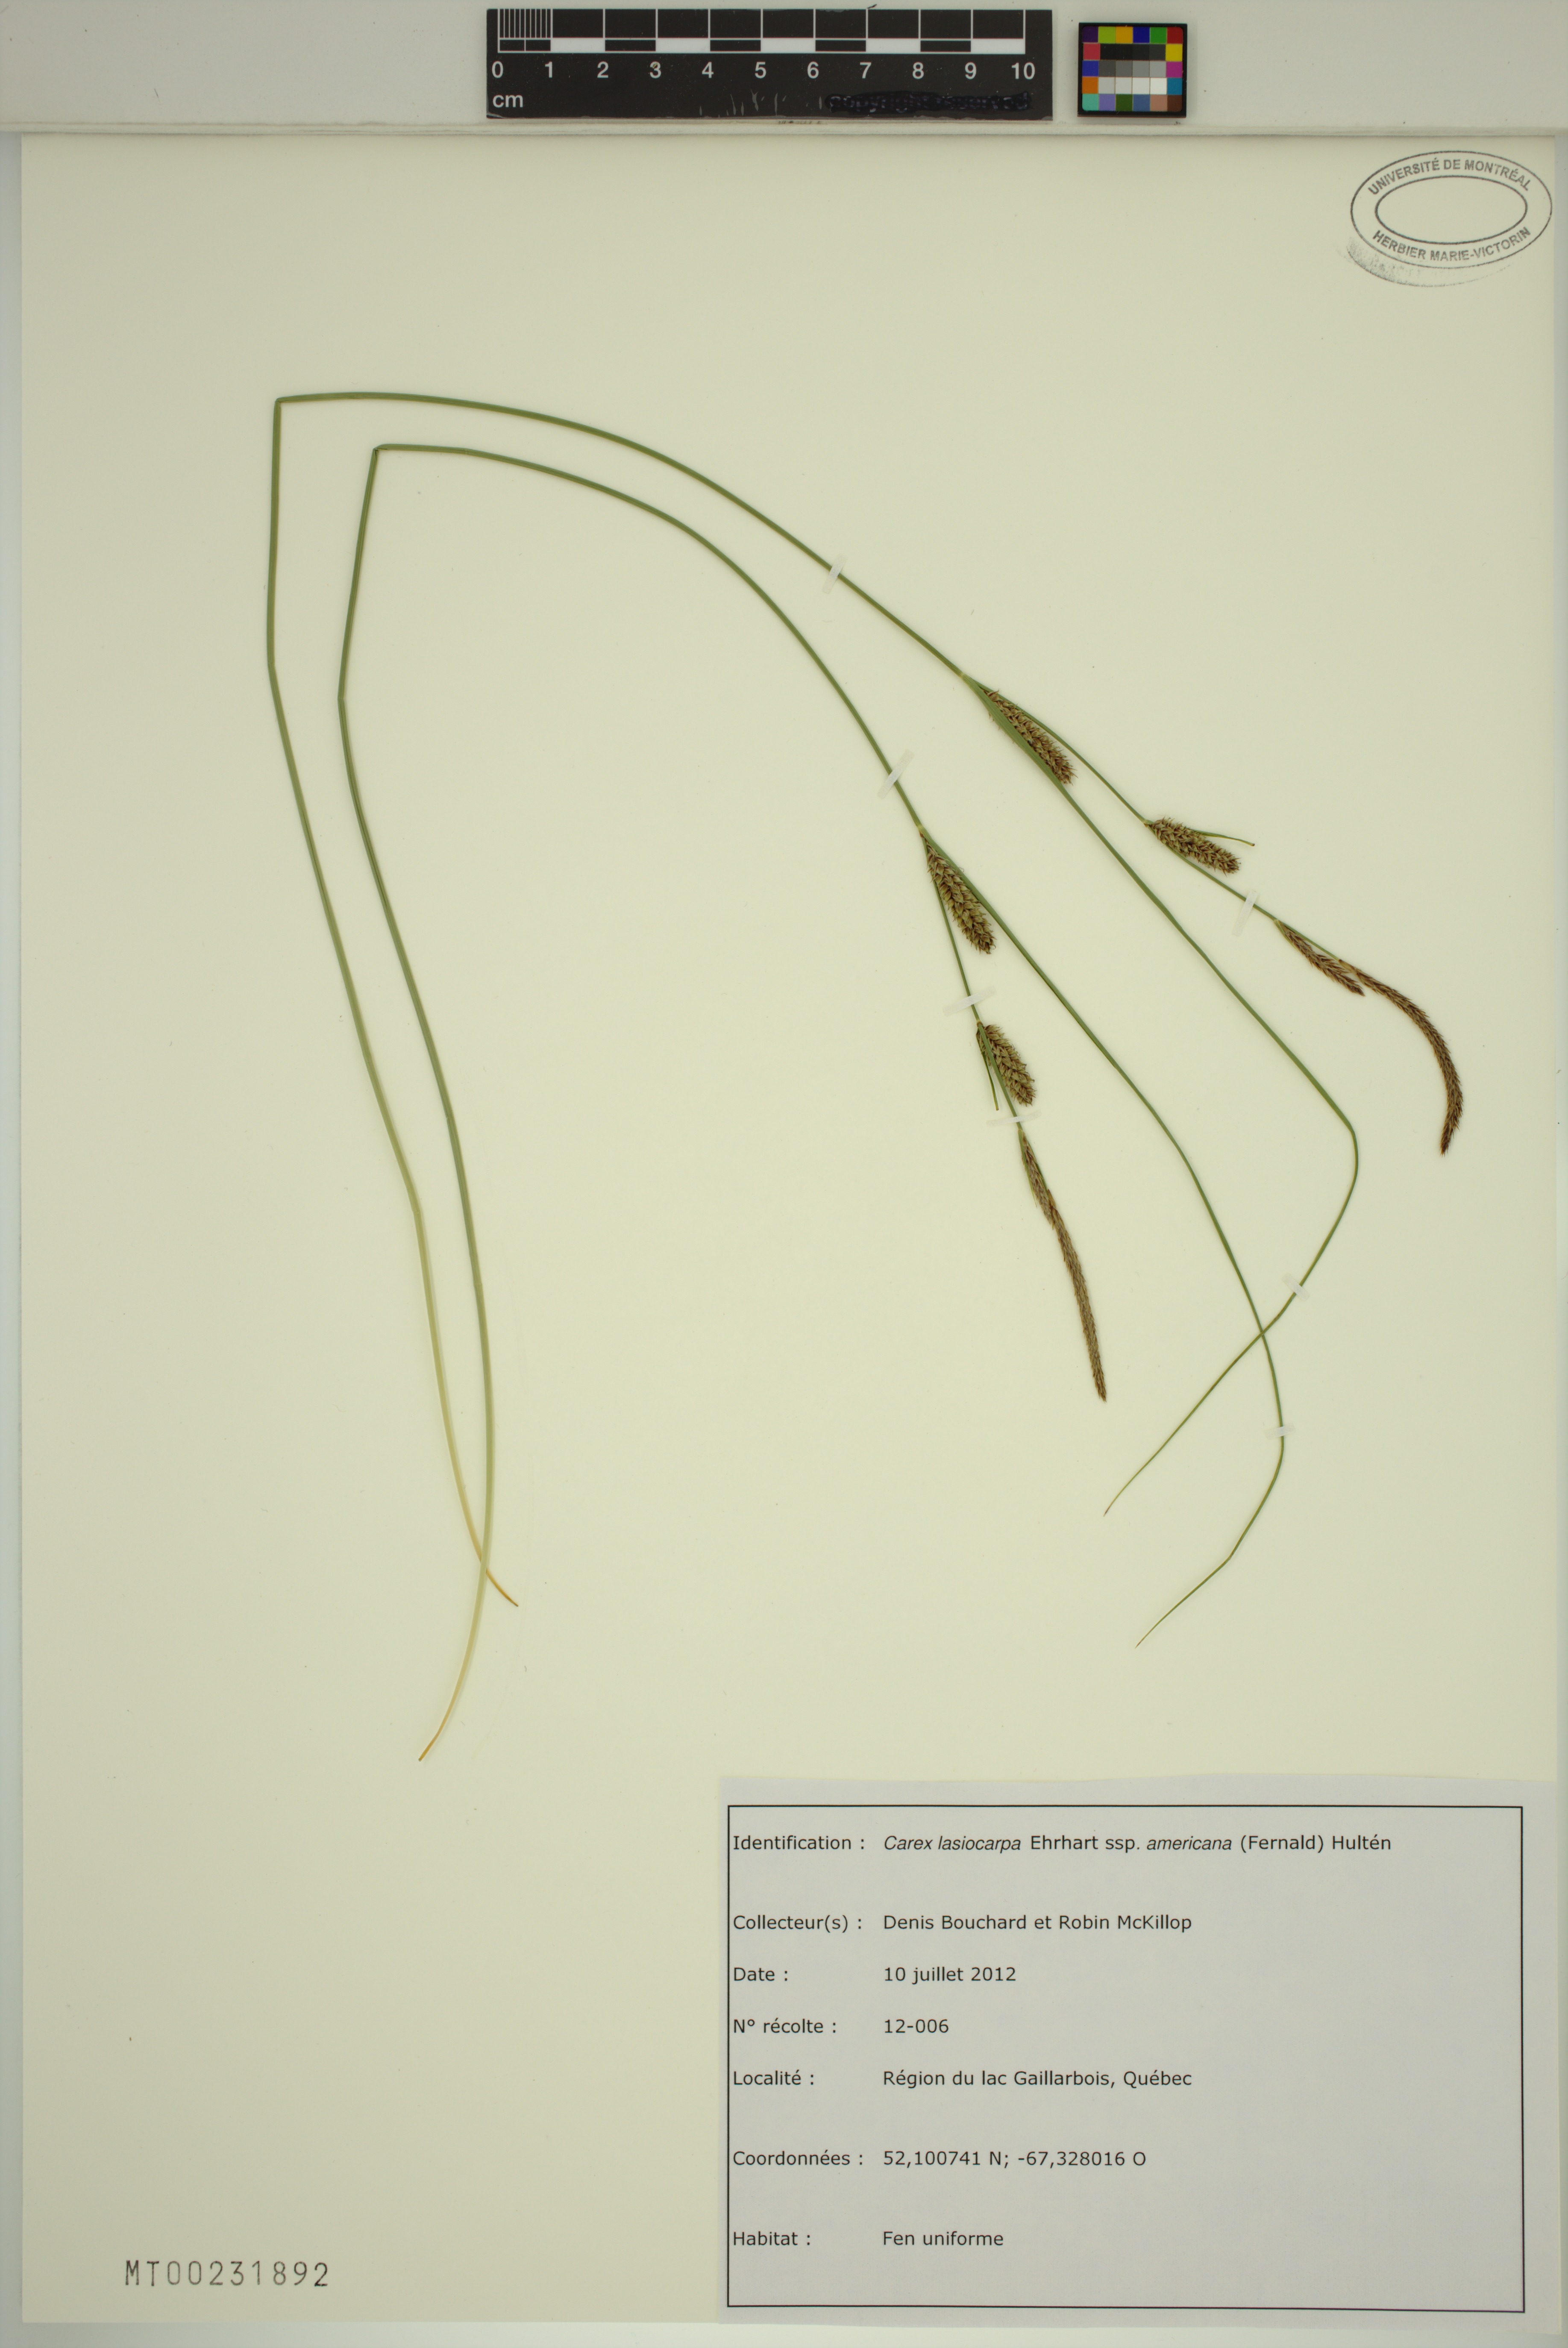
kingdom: Plantae
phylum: Tracheophyta
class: Liliopsida
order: Poales
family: Cyperaceae
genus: Carex
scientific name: Carex lasiocarpa
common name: Slender sedge
